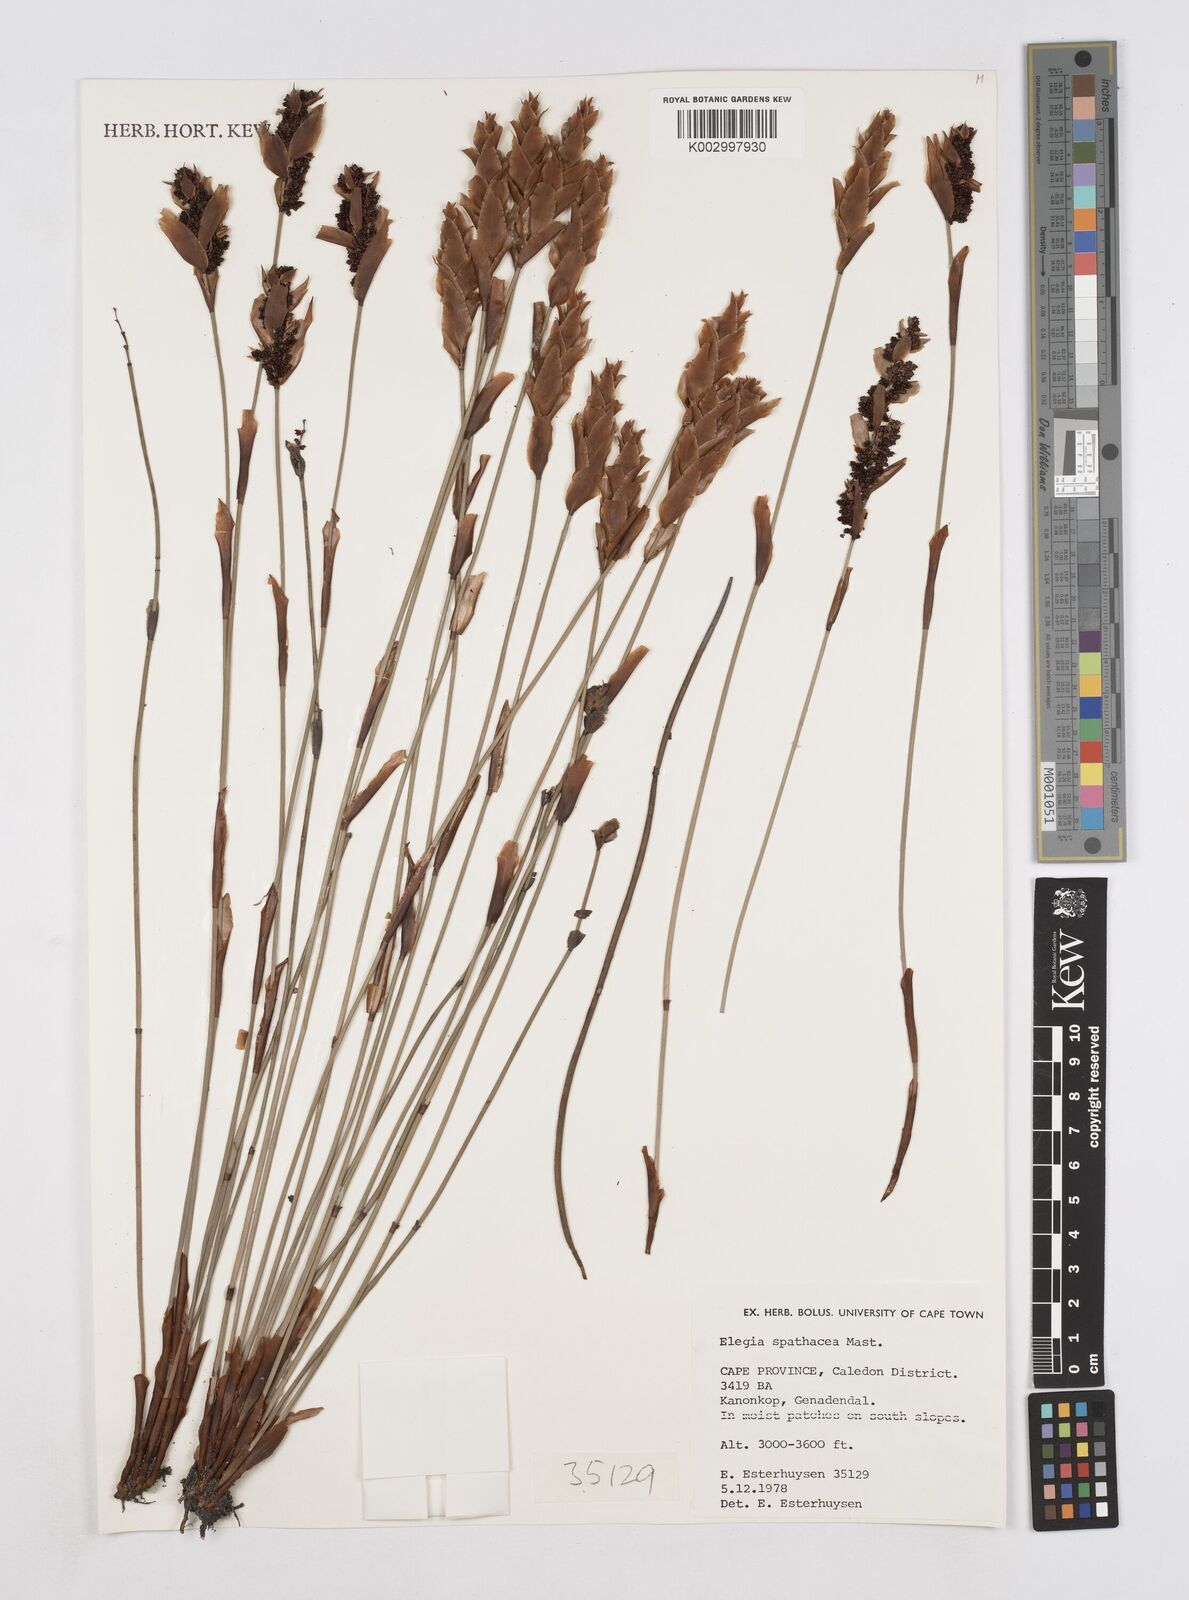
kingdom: Plantae
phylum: Tracheophyta
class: Liliopsida
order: Poales
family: Restionaceae
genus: Elegia
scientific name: Elegia spathacea
